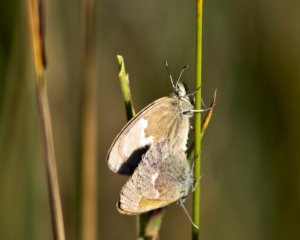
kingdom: Animalia
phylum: Arthropoda
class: Insecta
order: Lepidoptera
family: Lycaenidae
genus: Incisalia
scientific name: Incisalia irioides
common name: Brown Elfin
